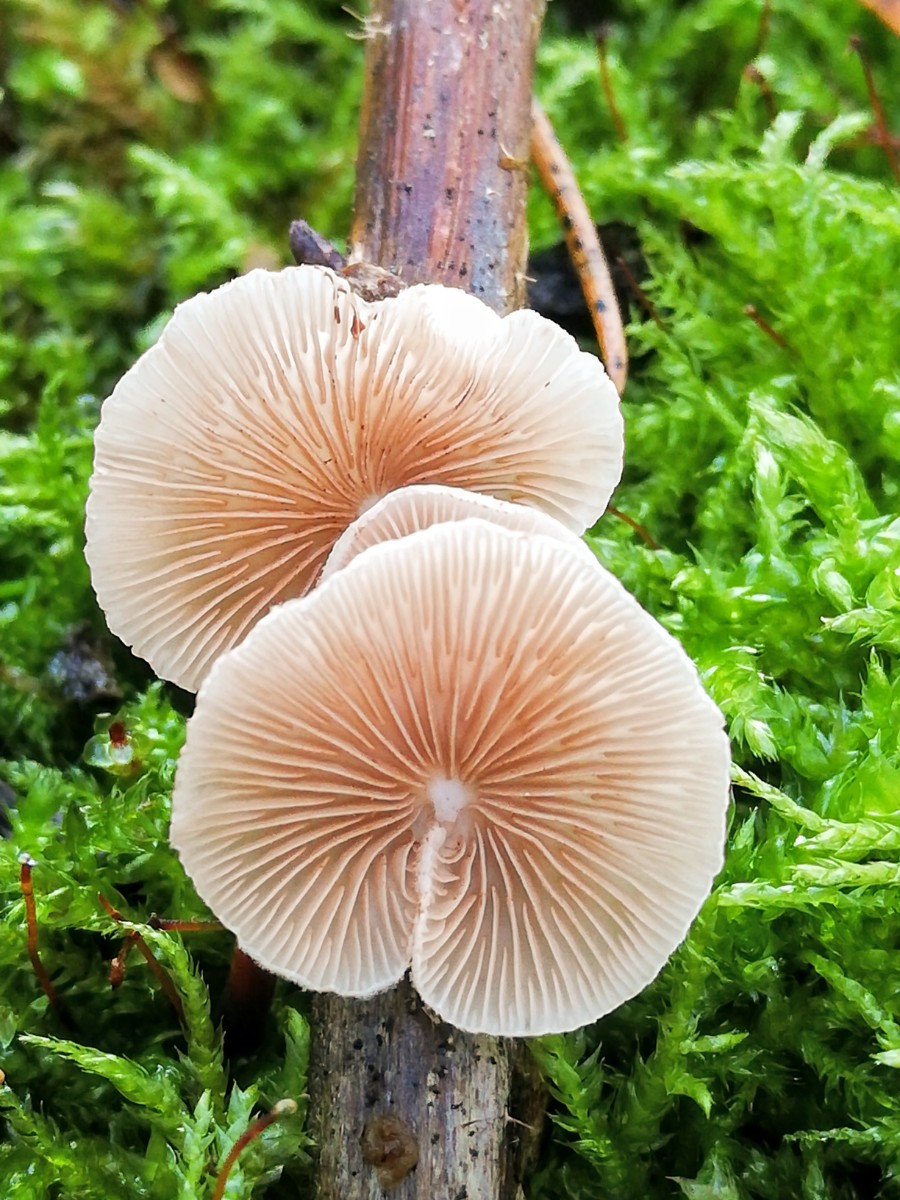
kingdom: Fungi
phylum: Basidiomycota
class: Agaricomycetes
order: Agaricales
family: Crepidotaceae
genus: Crepidotus
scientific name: Crepidotus
